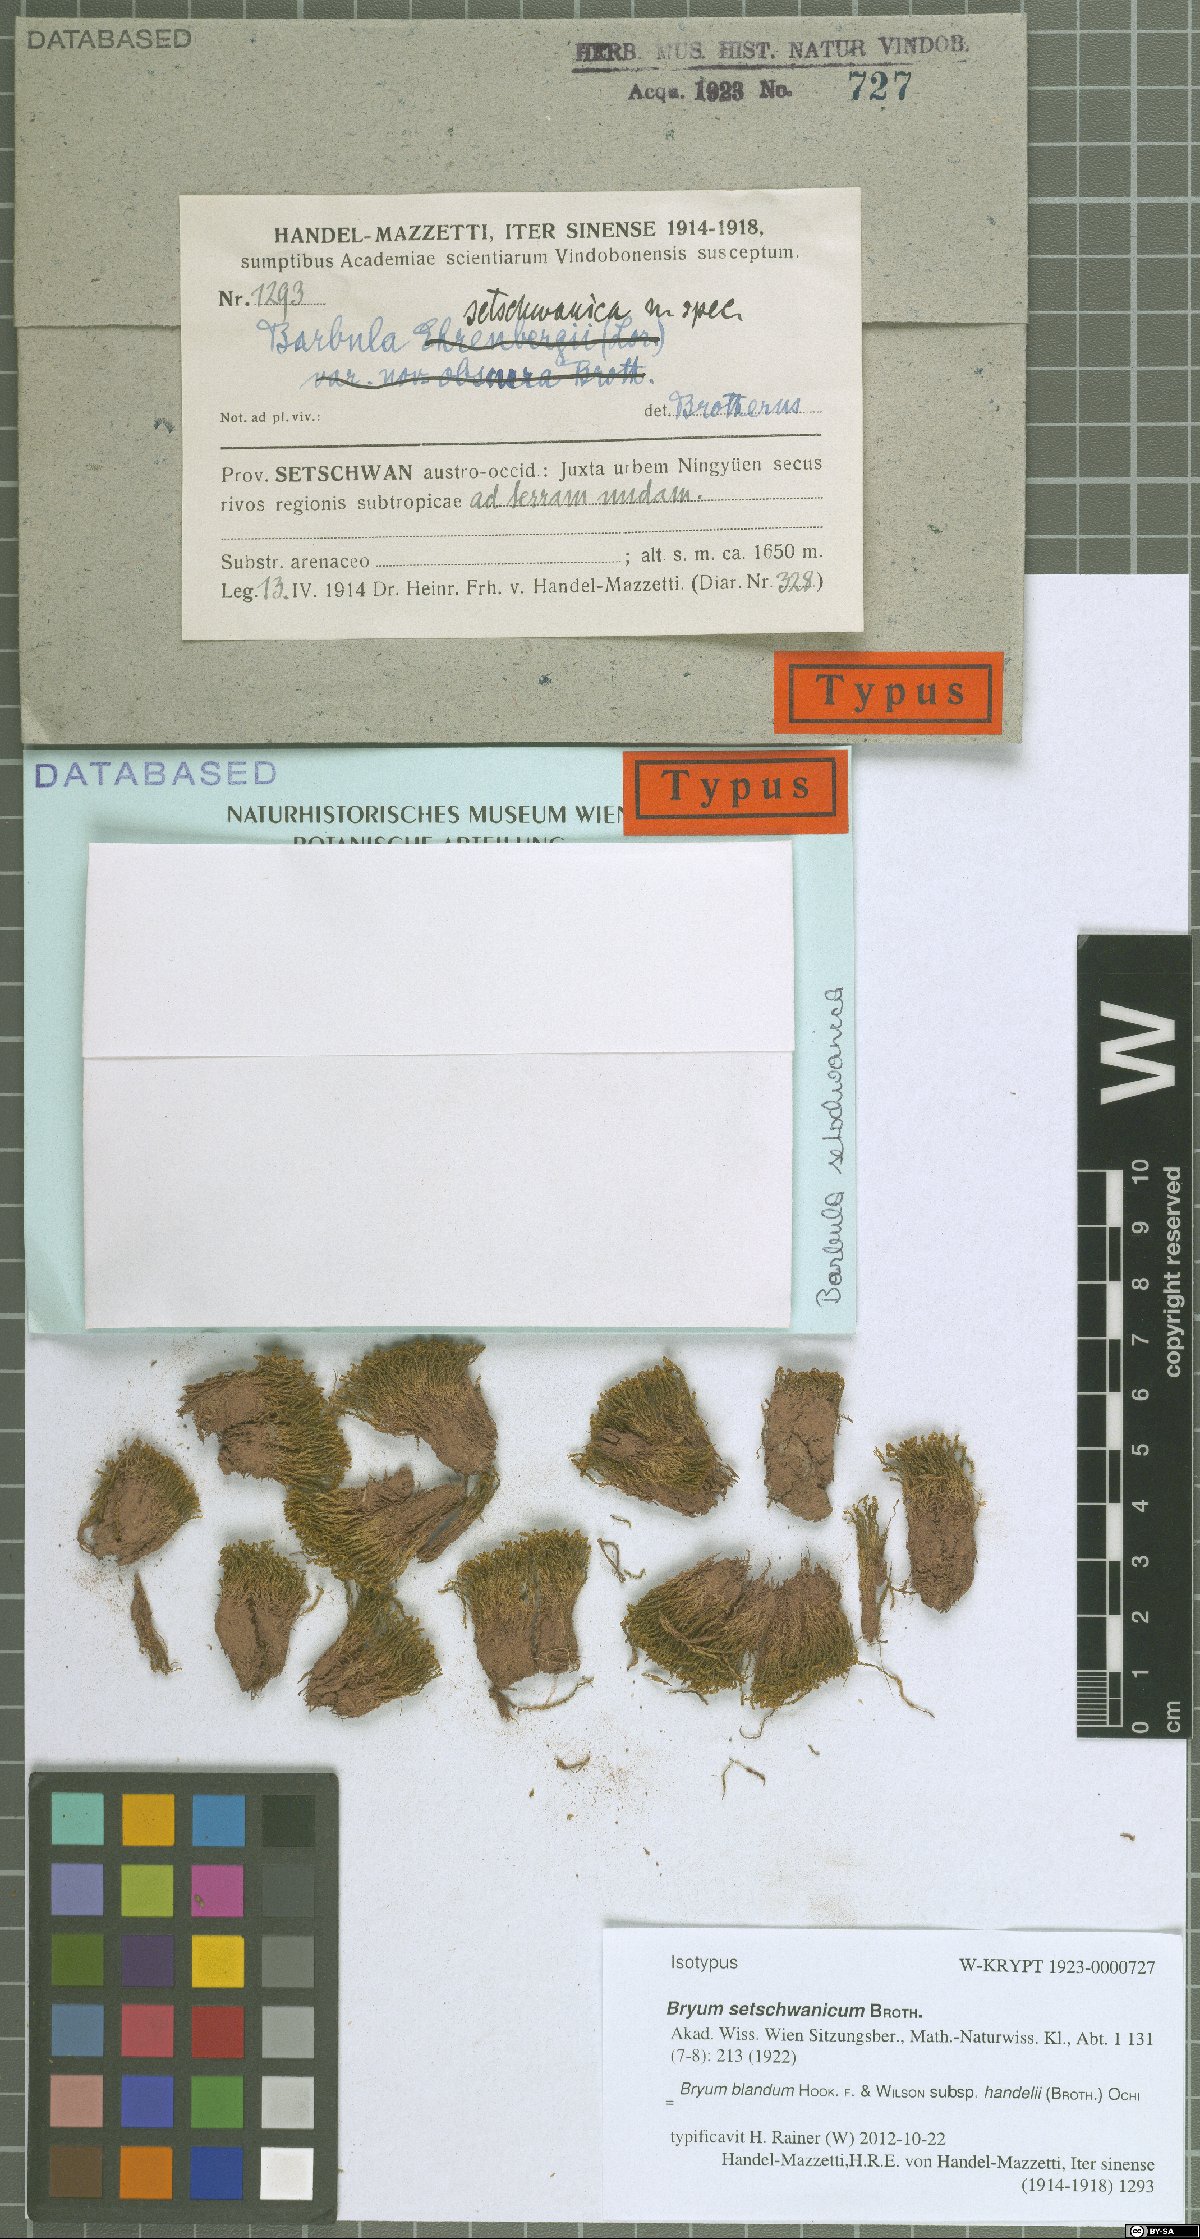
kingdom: Plantae
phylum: Bryophyta
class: Bryopsida
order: Bryales
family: Bryaceae
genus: Plagiobryoides
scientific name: Plagiobryoides cellularis
